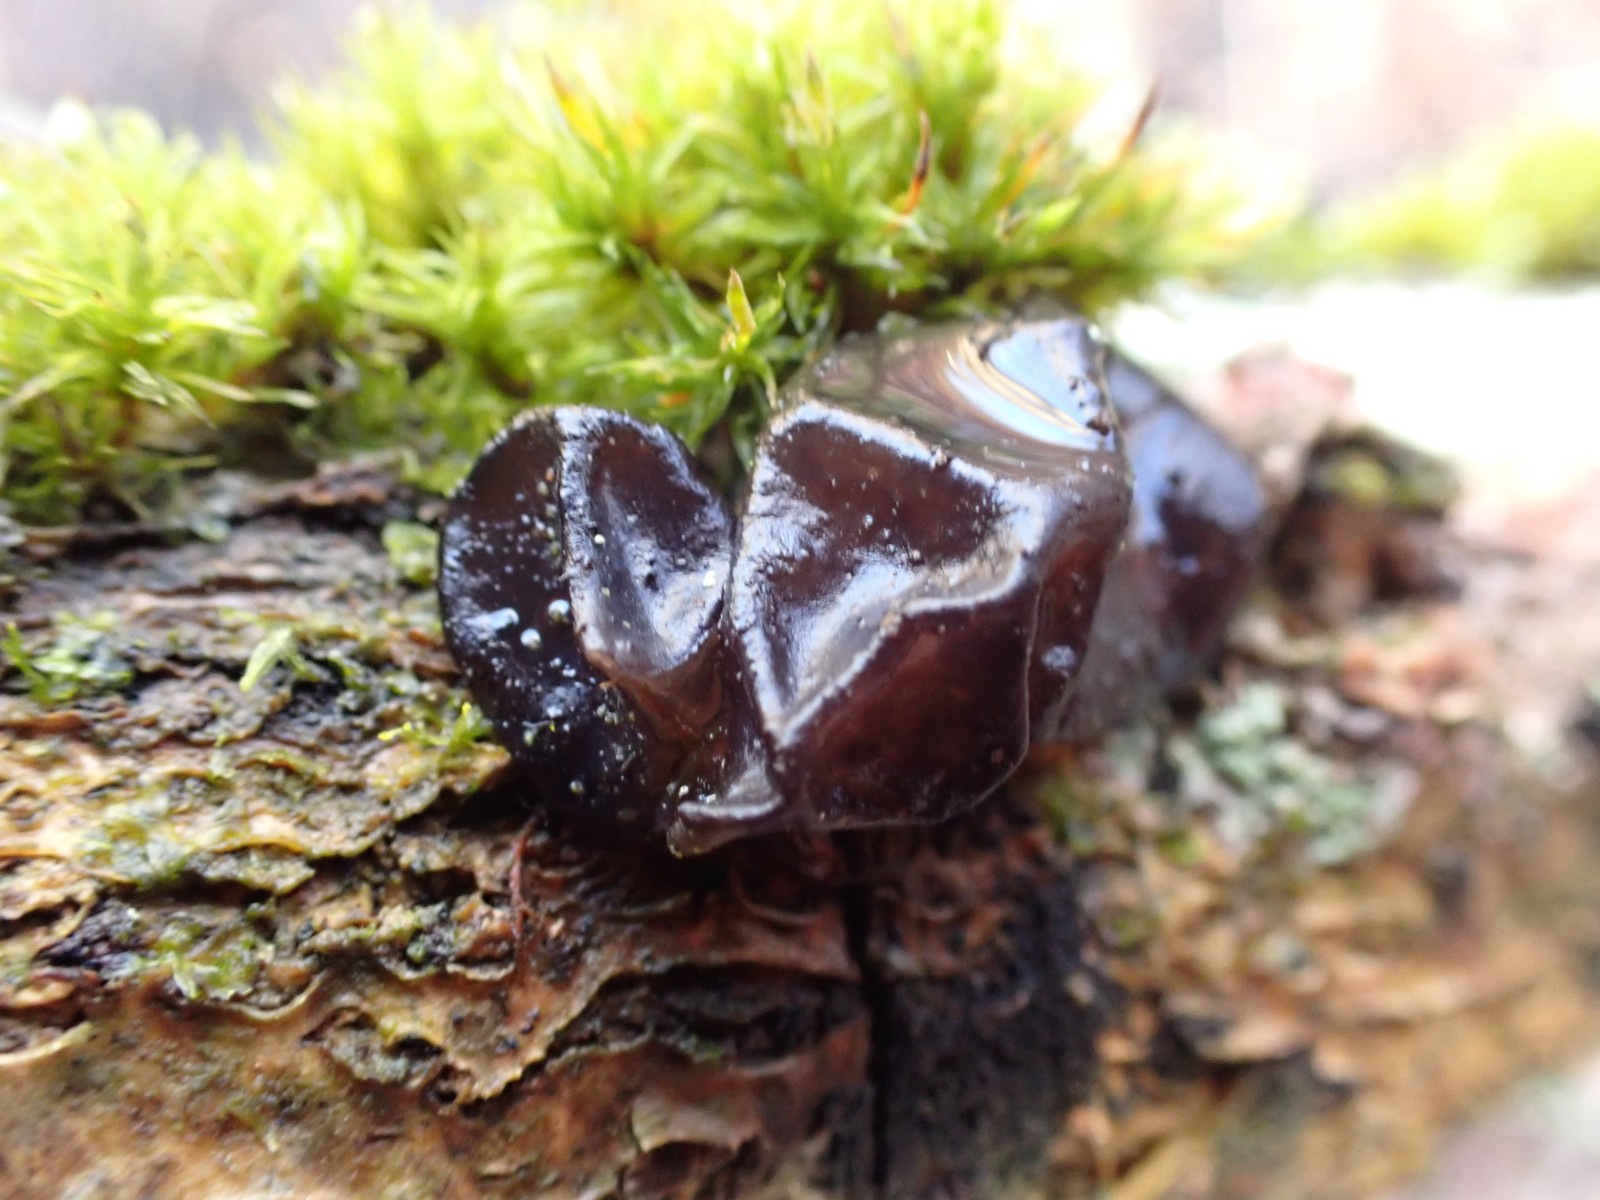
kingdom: Fungi
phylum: Basidiomycota
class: Agaricomycetes
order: Auriculariales
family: Auriculariaceae
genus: Exidia
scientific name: Exidia glandulosa
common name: ege-bævretop
